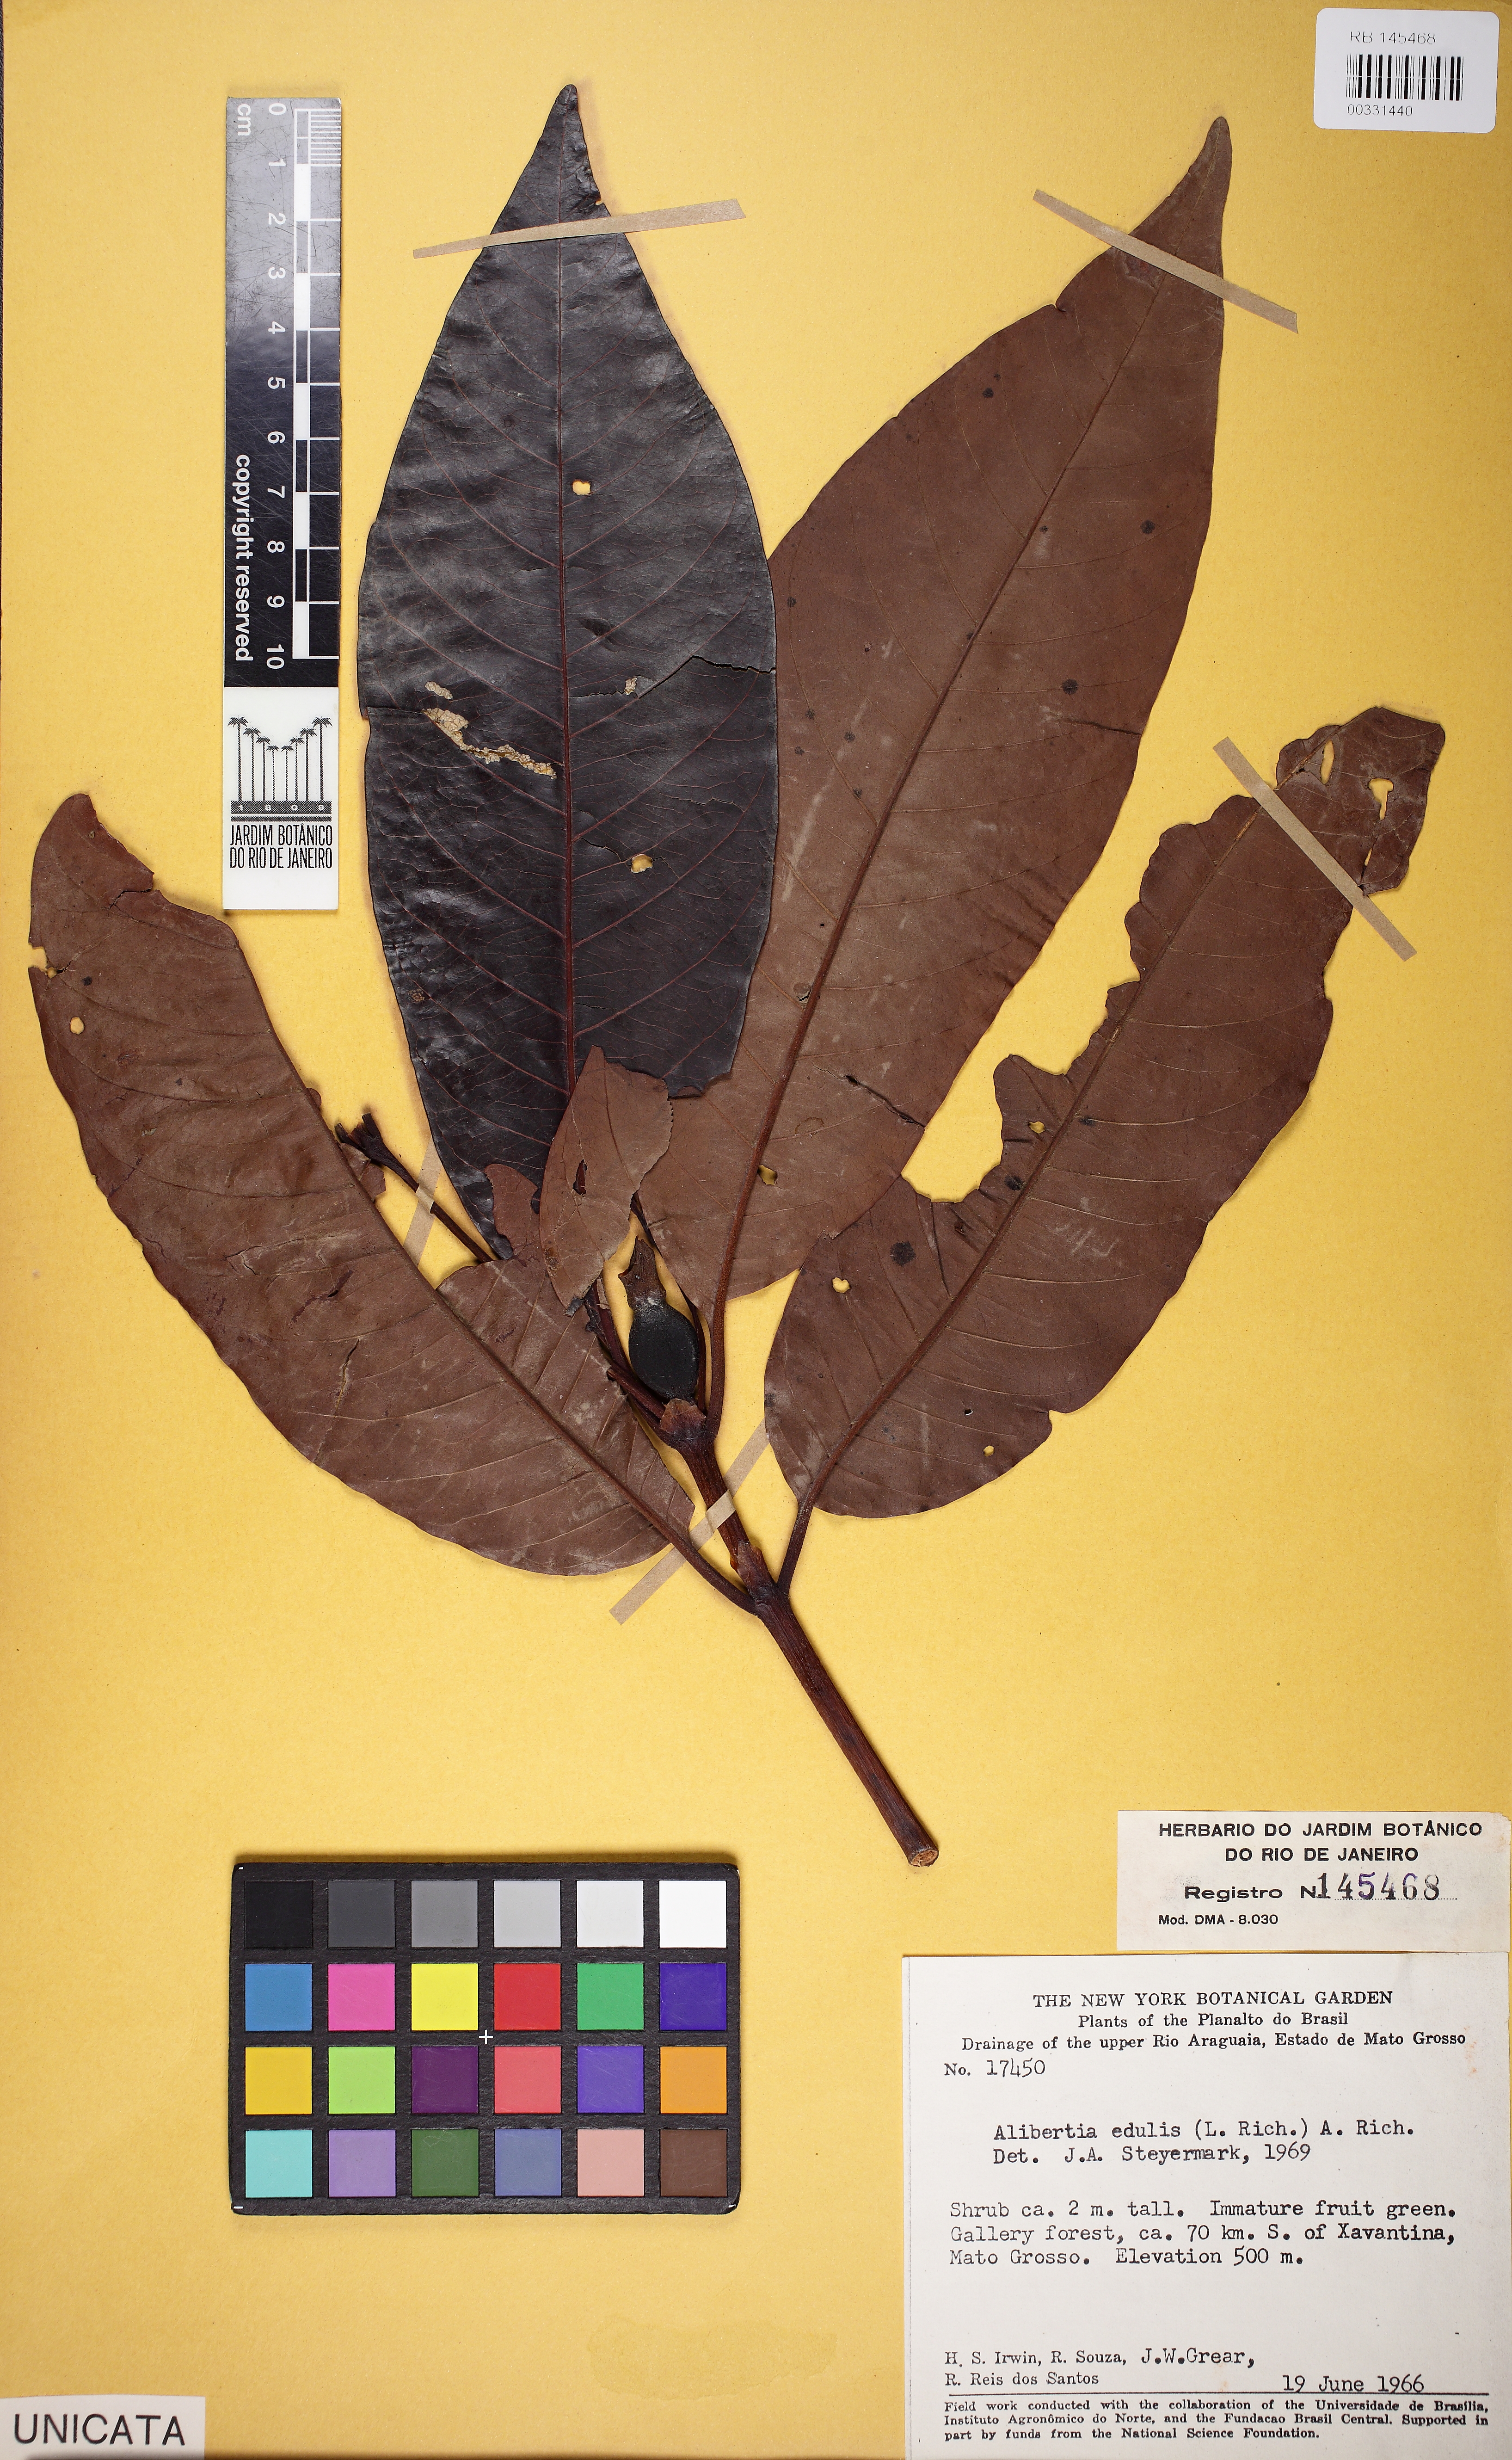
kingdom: Plantae
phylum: Tracheophyta
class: Magnoliopsida
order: Gentianales
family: Rubiaceae
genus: Alibertia
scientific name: Alibertia edulis
